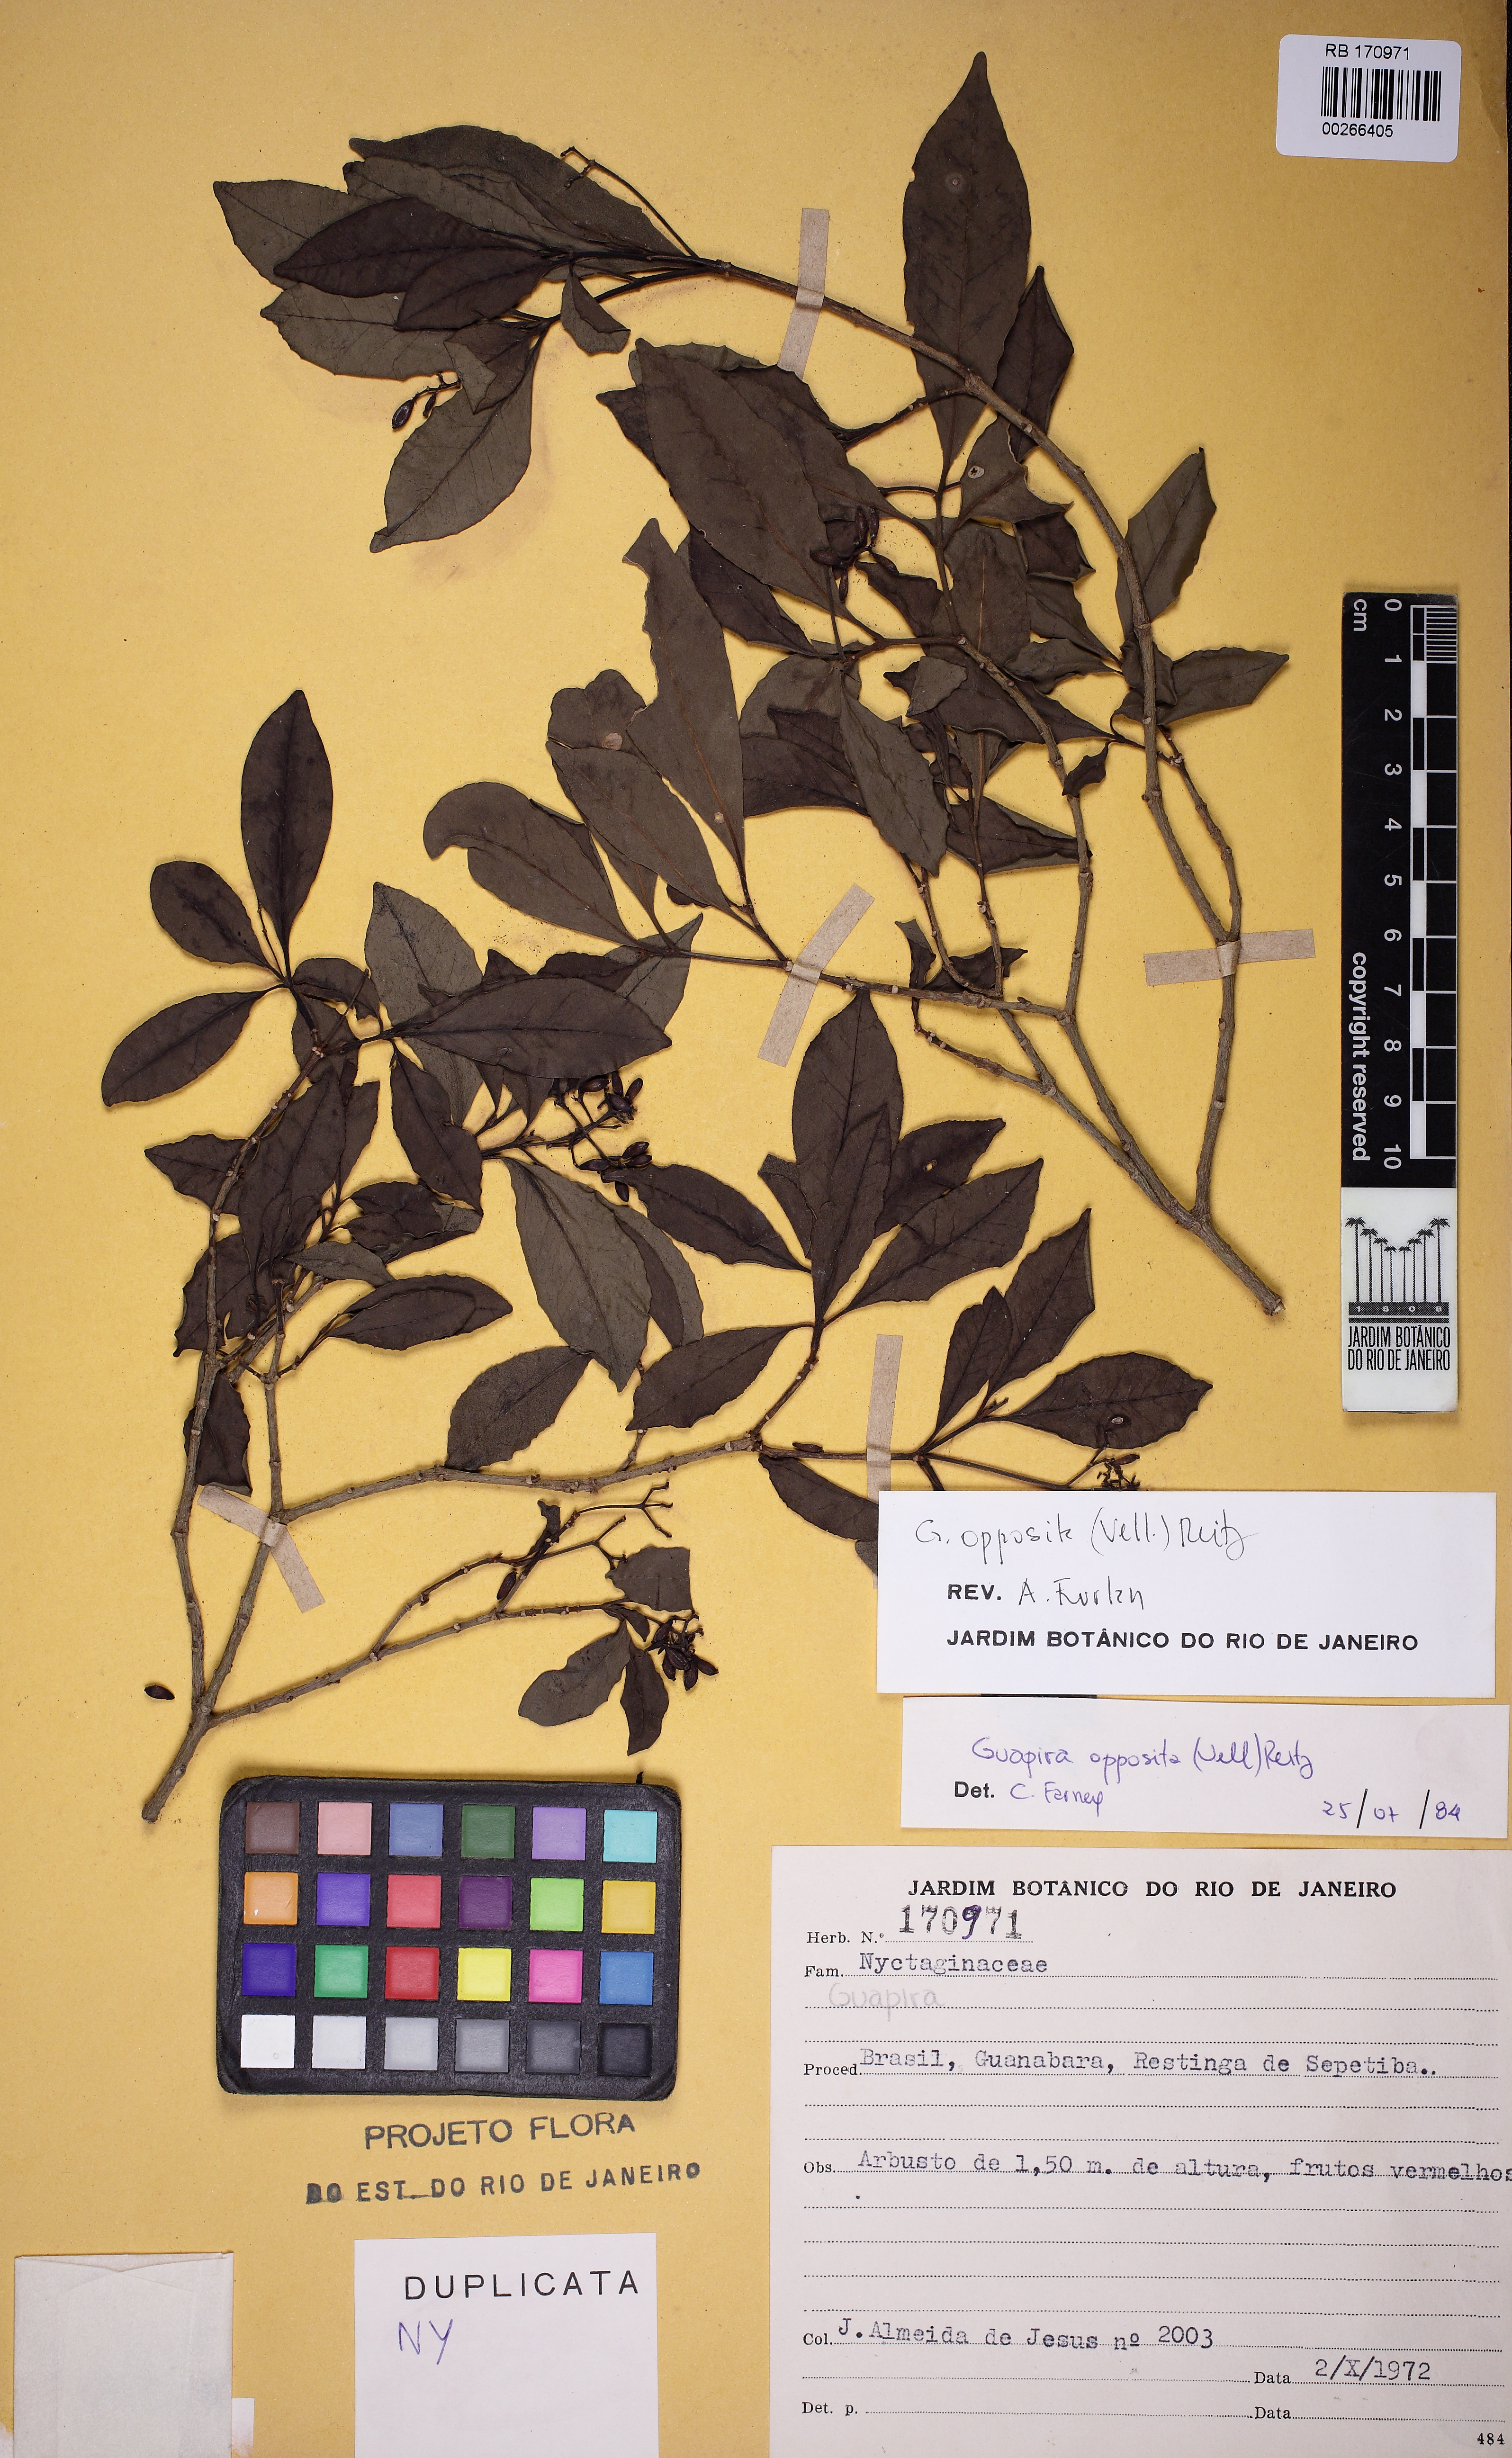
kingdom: Plantae
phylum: Tracheophyta
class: Magnoliopsida
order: Caryophyllales
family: Nyctaginaceae
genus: Guapira
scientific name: Guapira opposita
